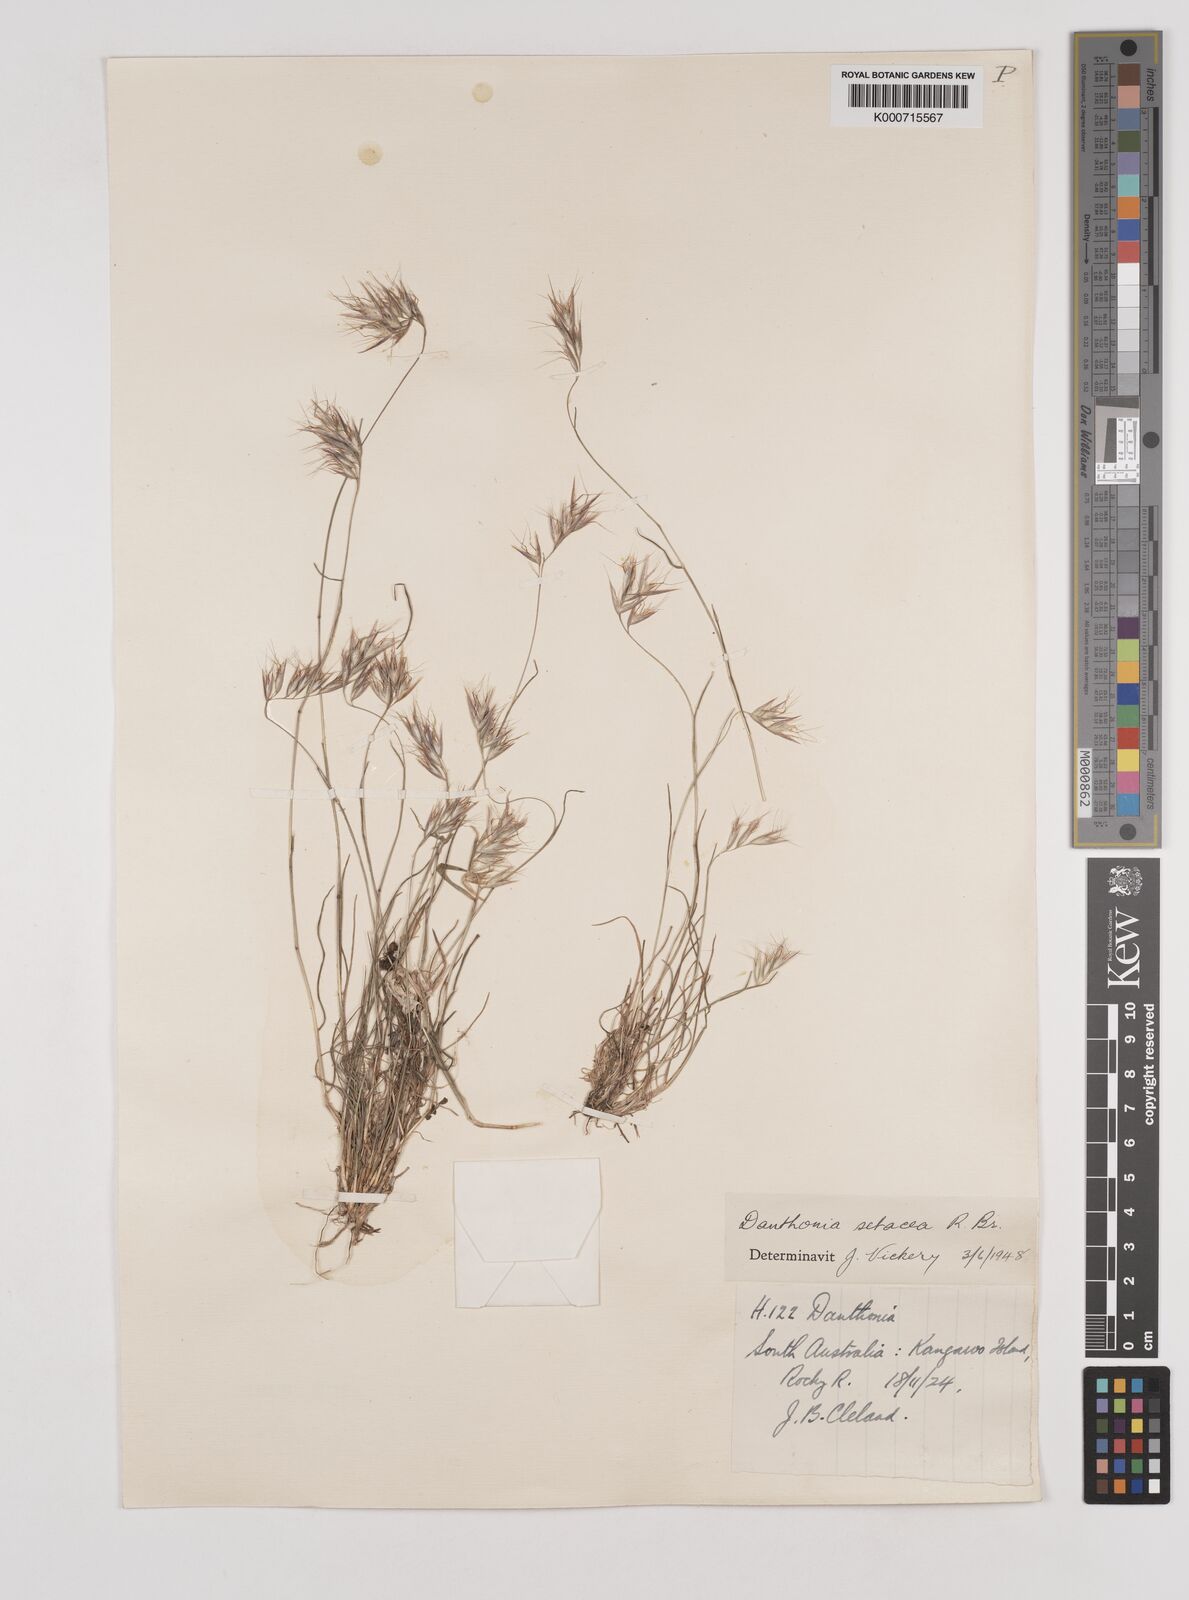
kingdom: Plantae
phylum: Tracheophyta
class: Liliopsida
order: Poales
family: Poaceae
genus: Rytidosperma
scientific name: Rytidosperma setaceum
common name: Small-flower wallaby grass
